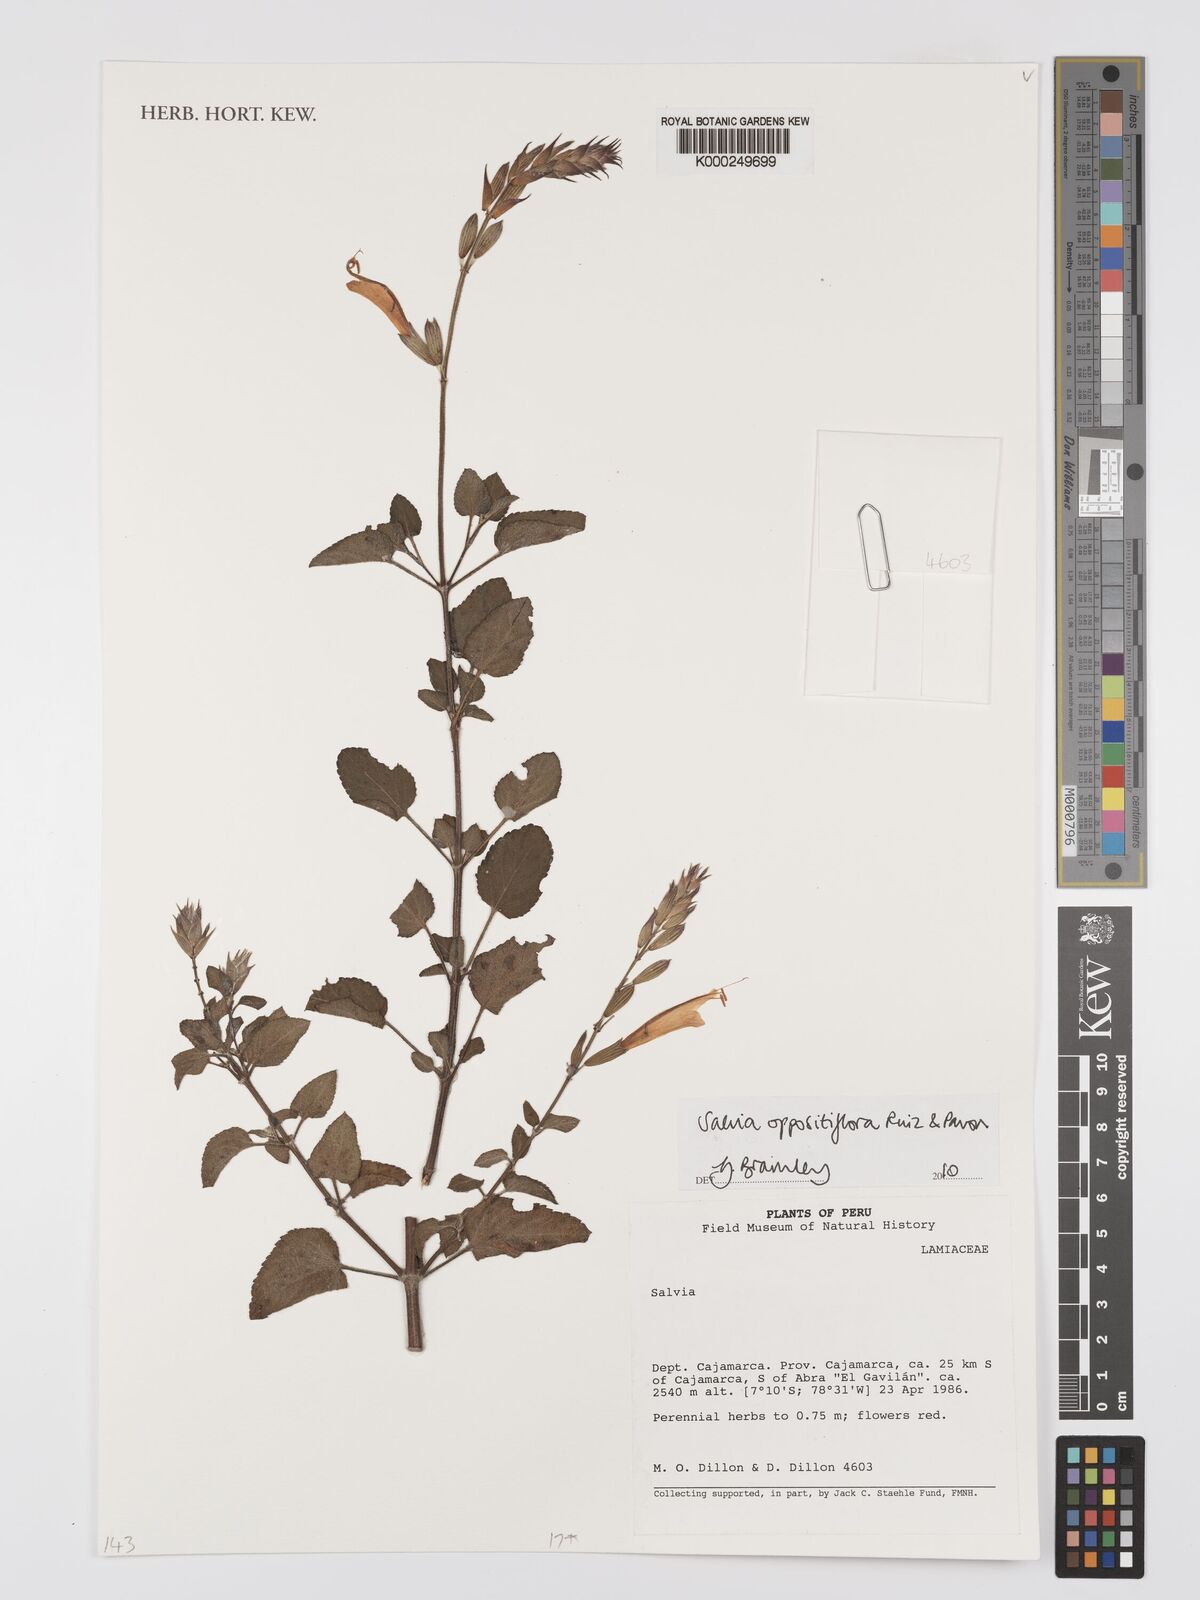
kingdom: Plantae
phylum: Tracheophyta
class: Magnoliopsida
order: Lamiales
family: Lamiaceae
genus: Salvia
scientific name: Salvia oppositiflora
